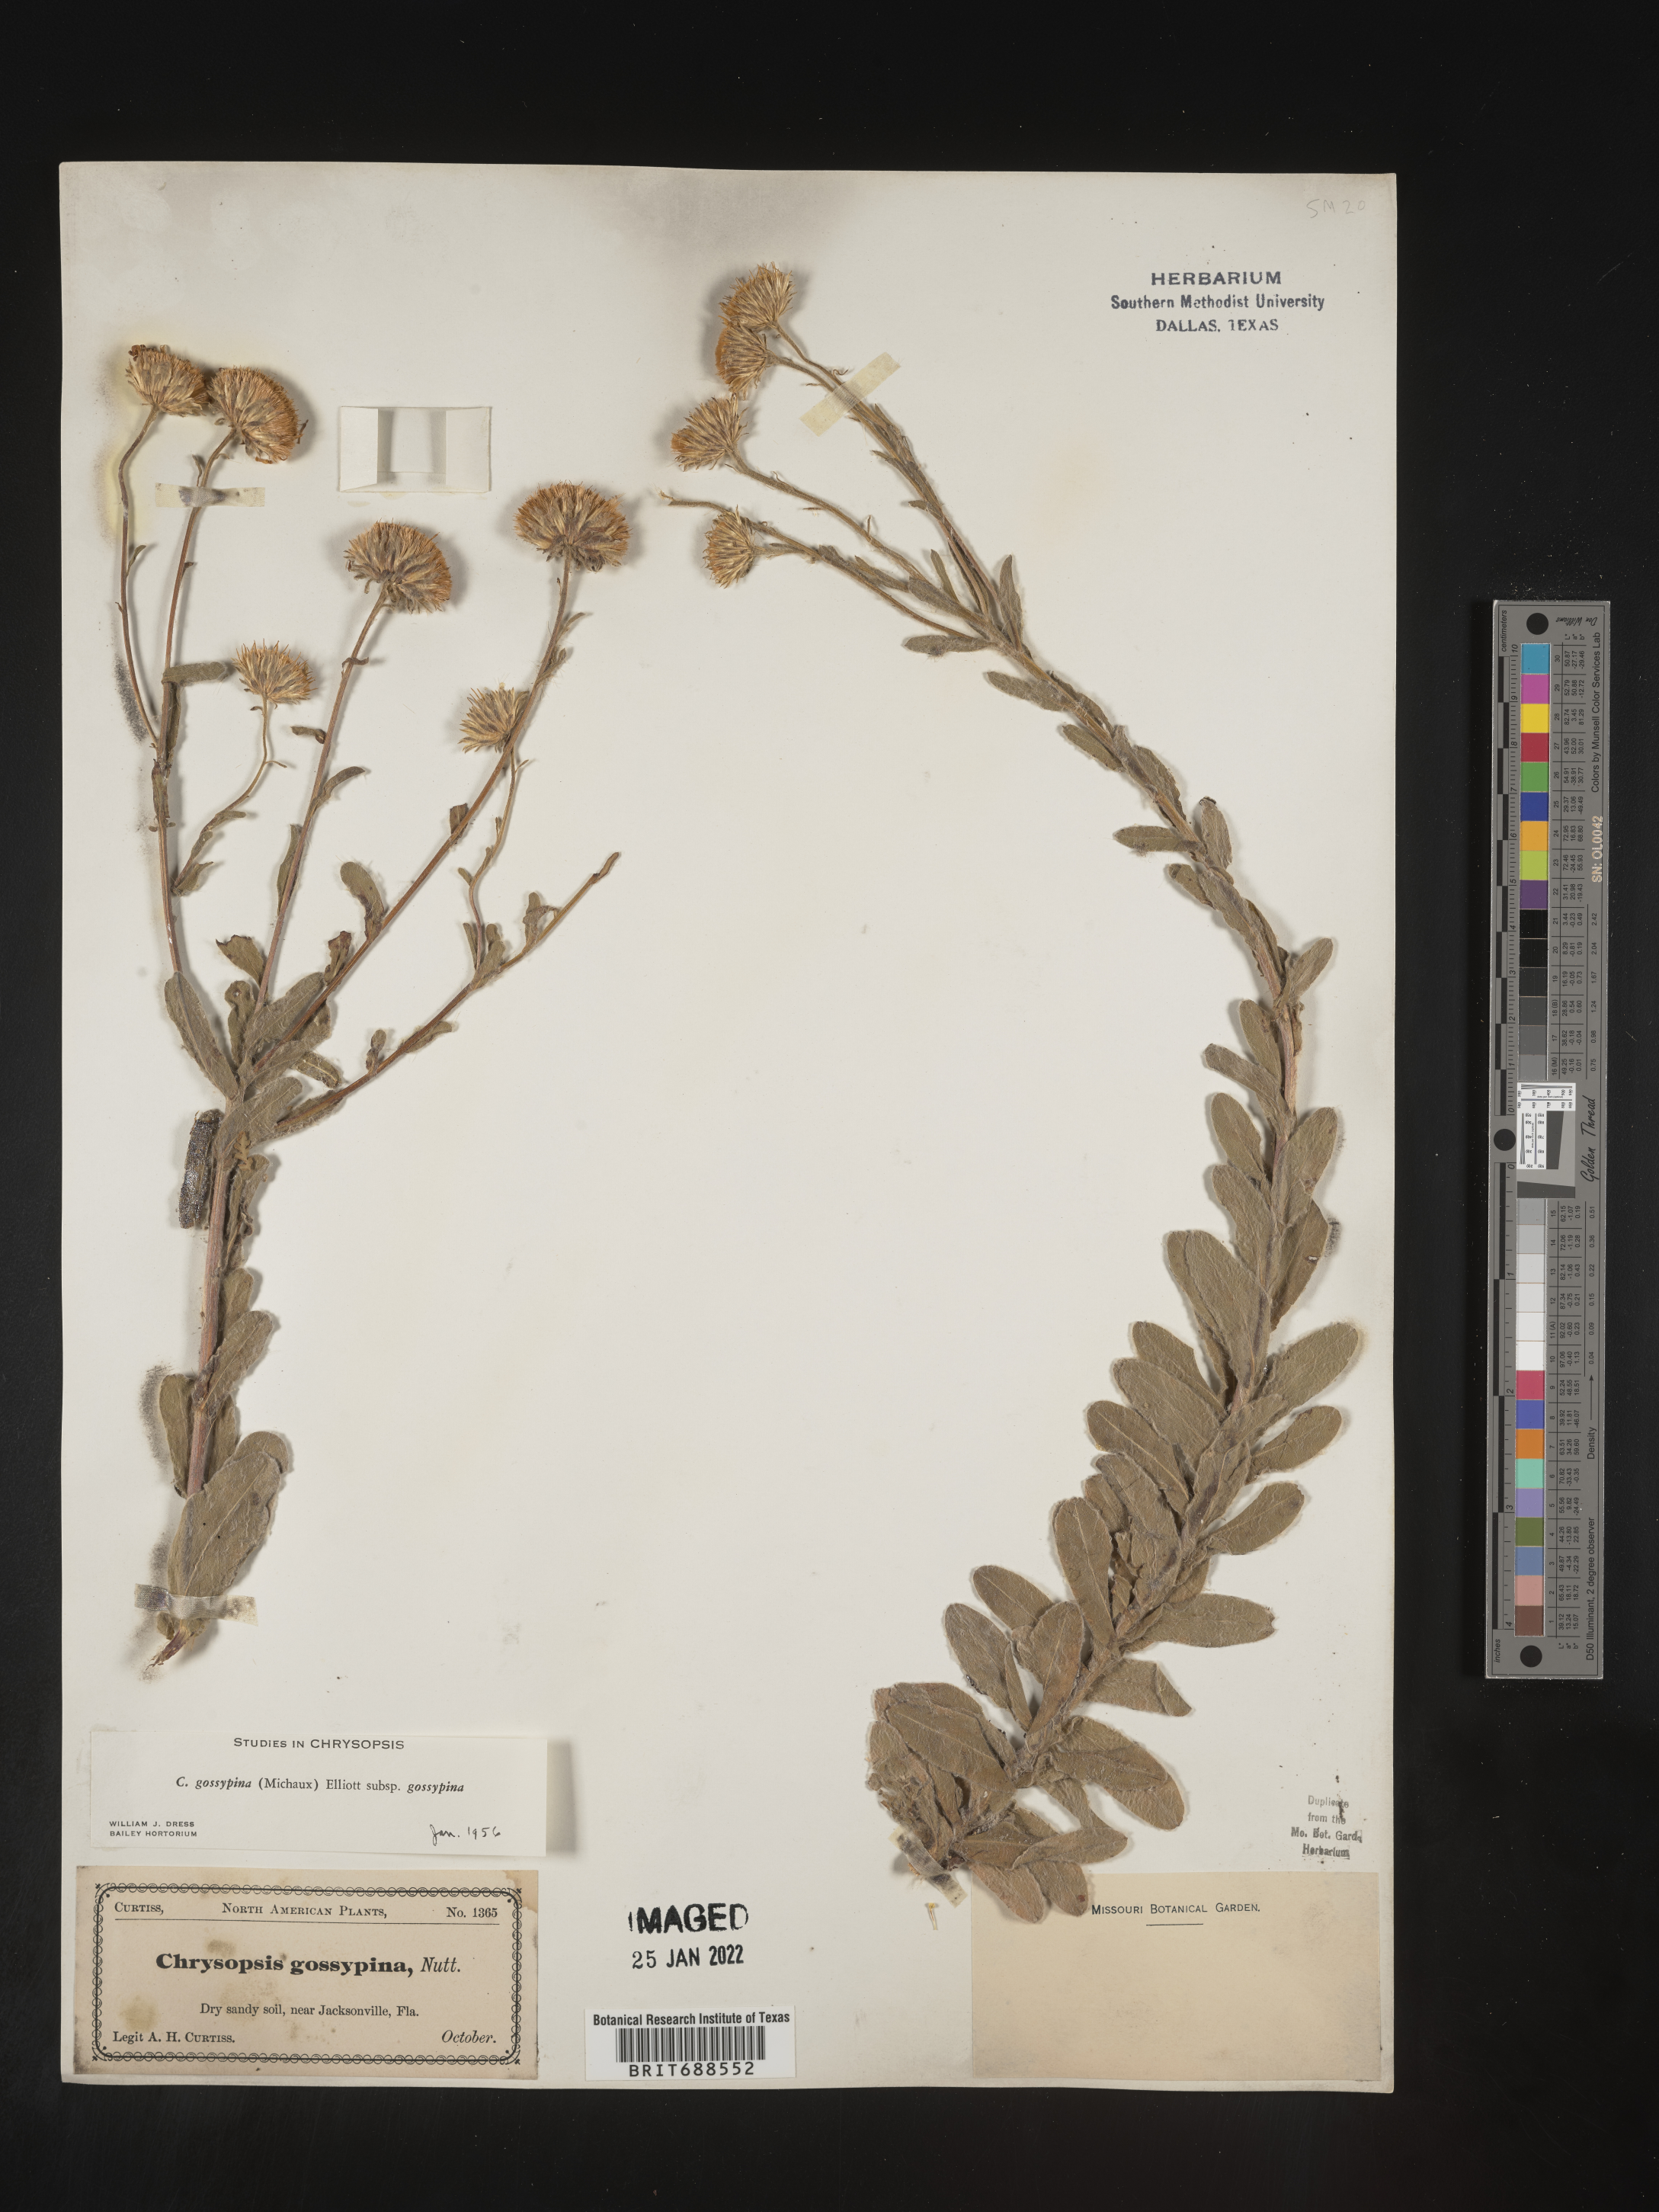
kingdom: Plantae
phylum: Tracheophyta
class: Magnoliopsida
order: Asterales
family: Asteraceae
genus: Chrysopsis
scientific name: Chrysopsis gossypina
